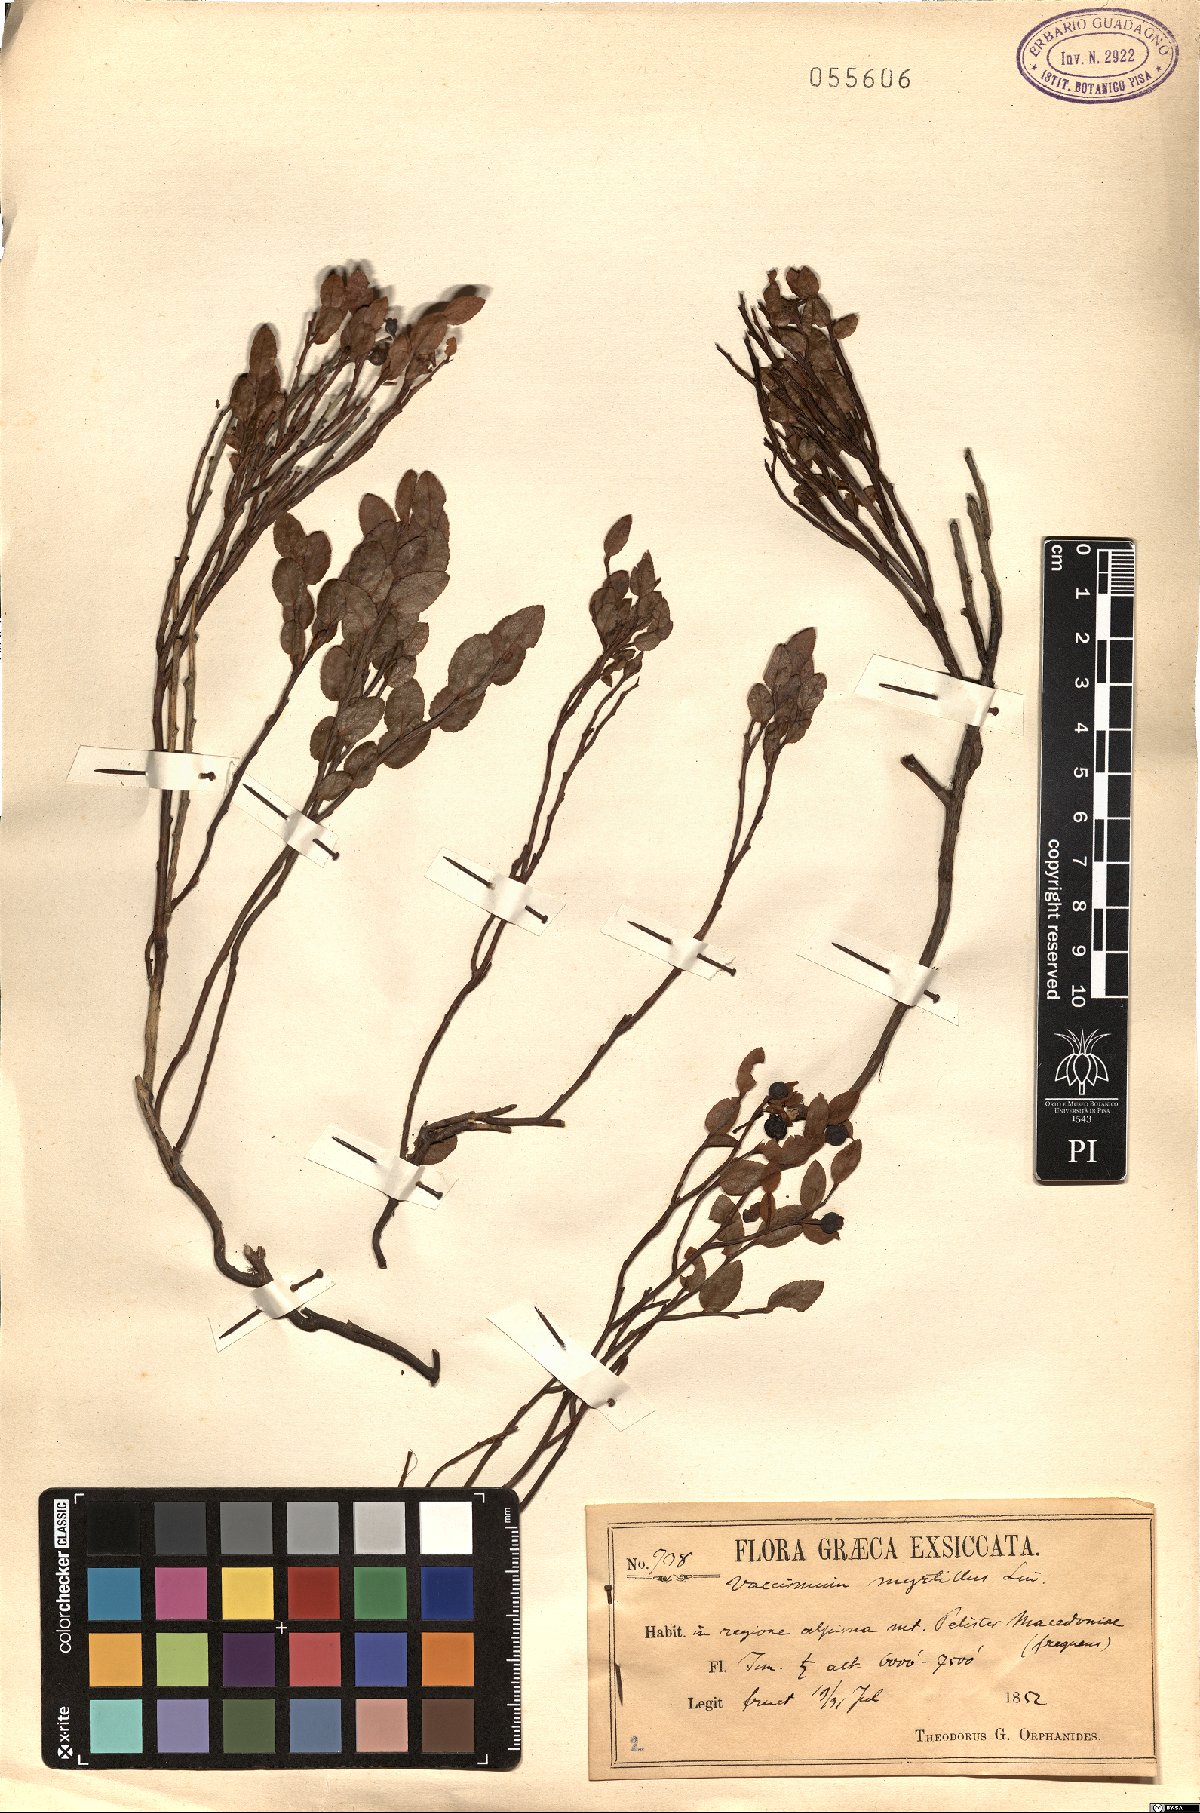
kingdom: Plantae
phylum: Tracheophyta
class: Magnoliopsida
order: Ericales
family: Ericaceae
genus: Vaccinium
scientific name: Vaccinium myrtillus
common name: Bilberry
